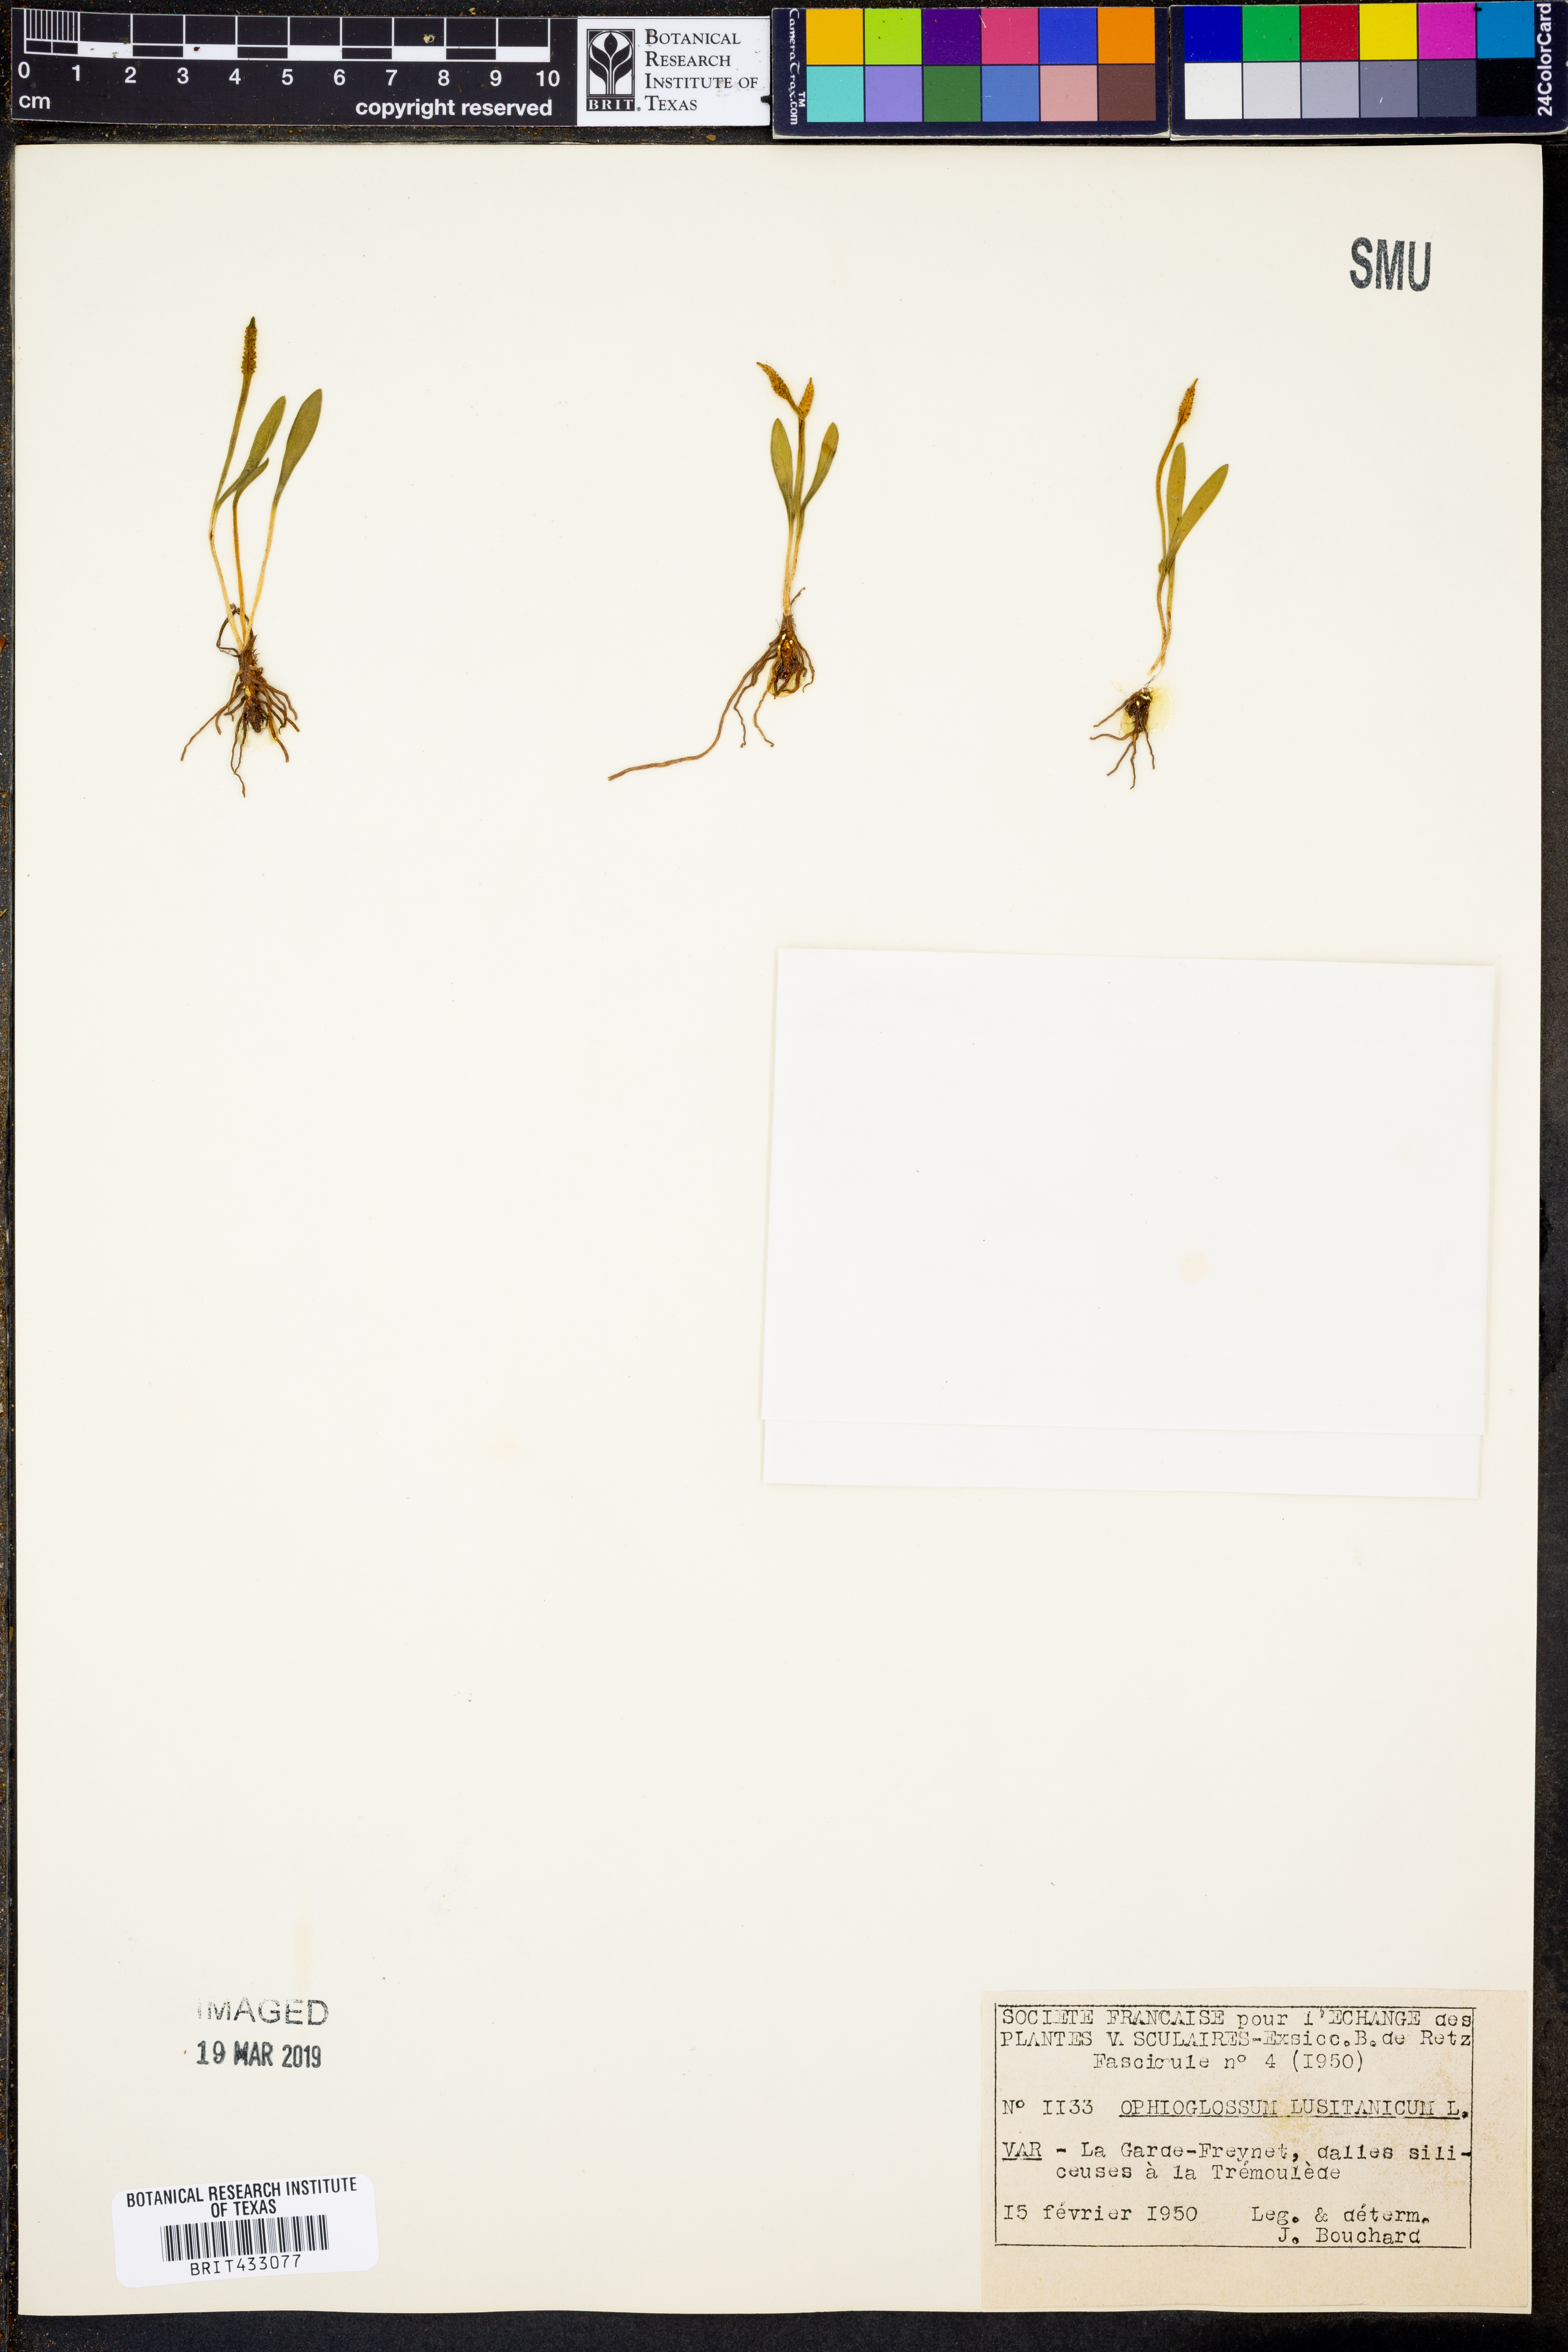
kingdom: Plantae
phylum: Tracheophyta
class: Polypodiopsida
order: Ophioglossales
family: Ophioglossaceae
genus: Ophioglossum
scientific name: Ophioglossum lusitanicum
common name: Least adder's-tongue
